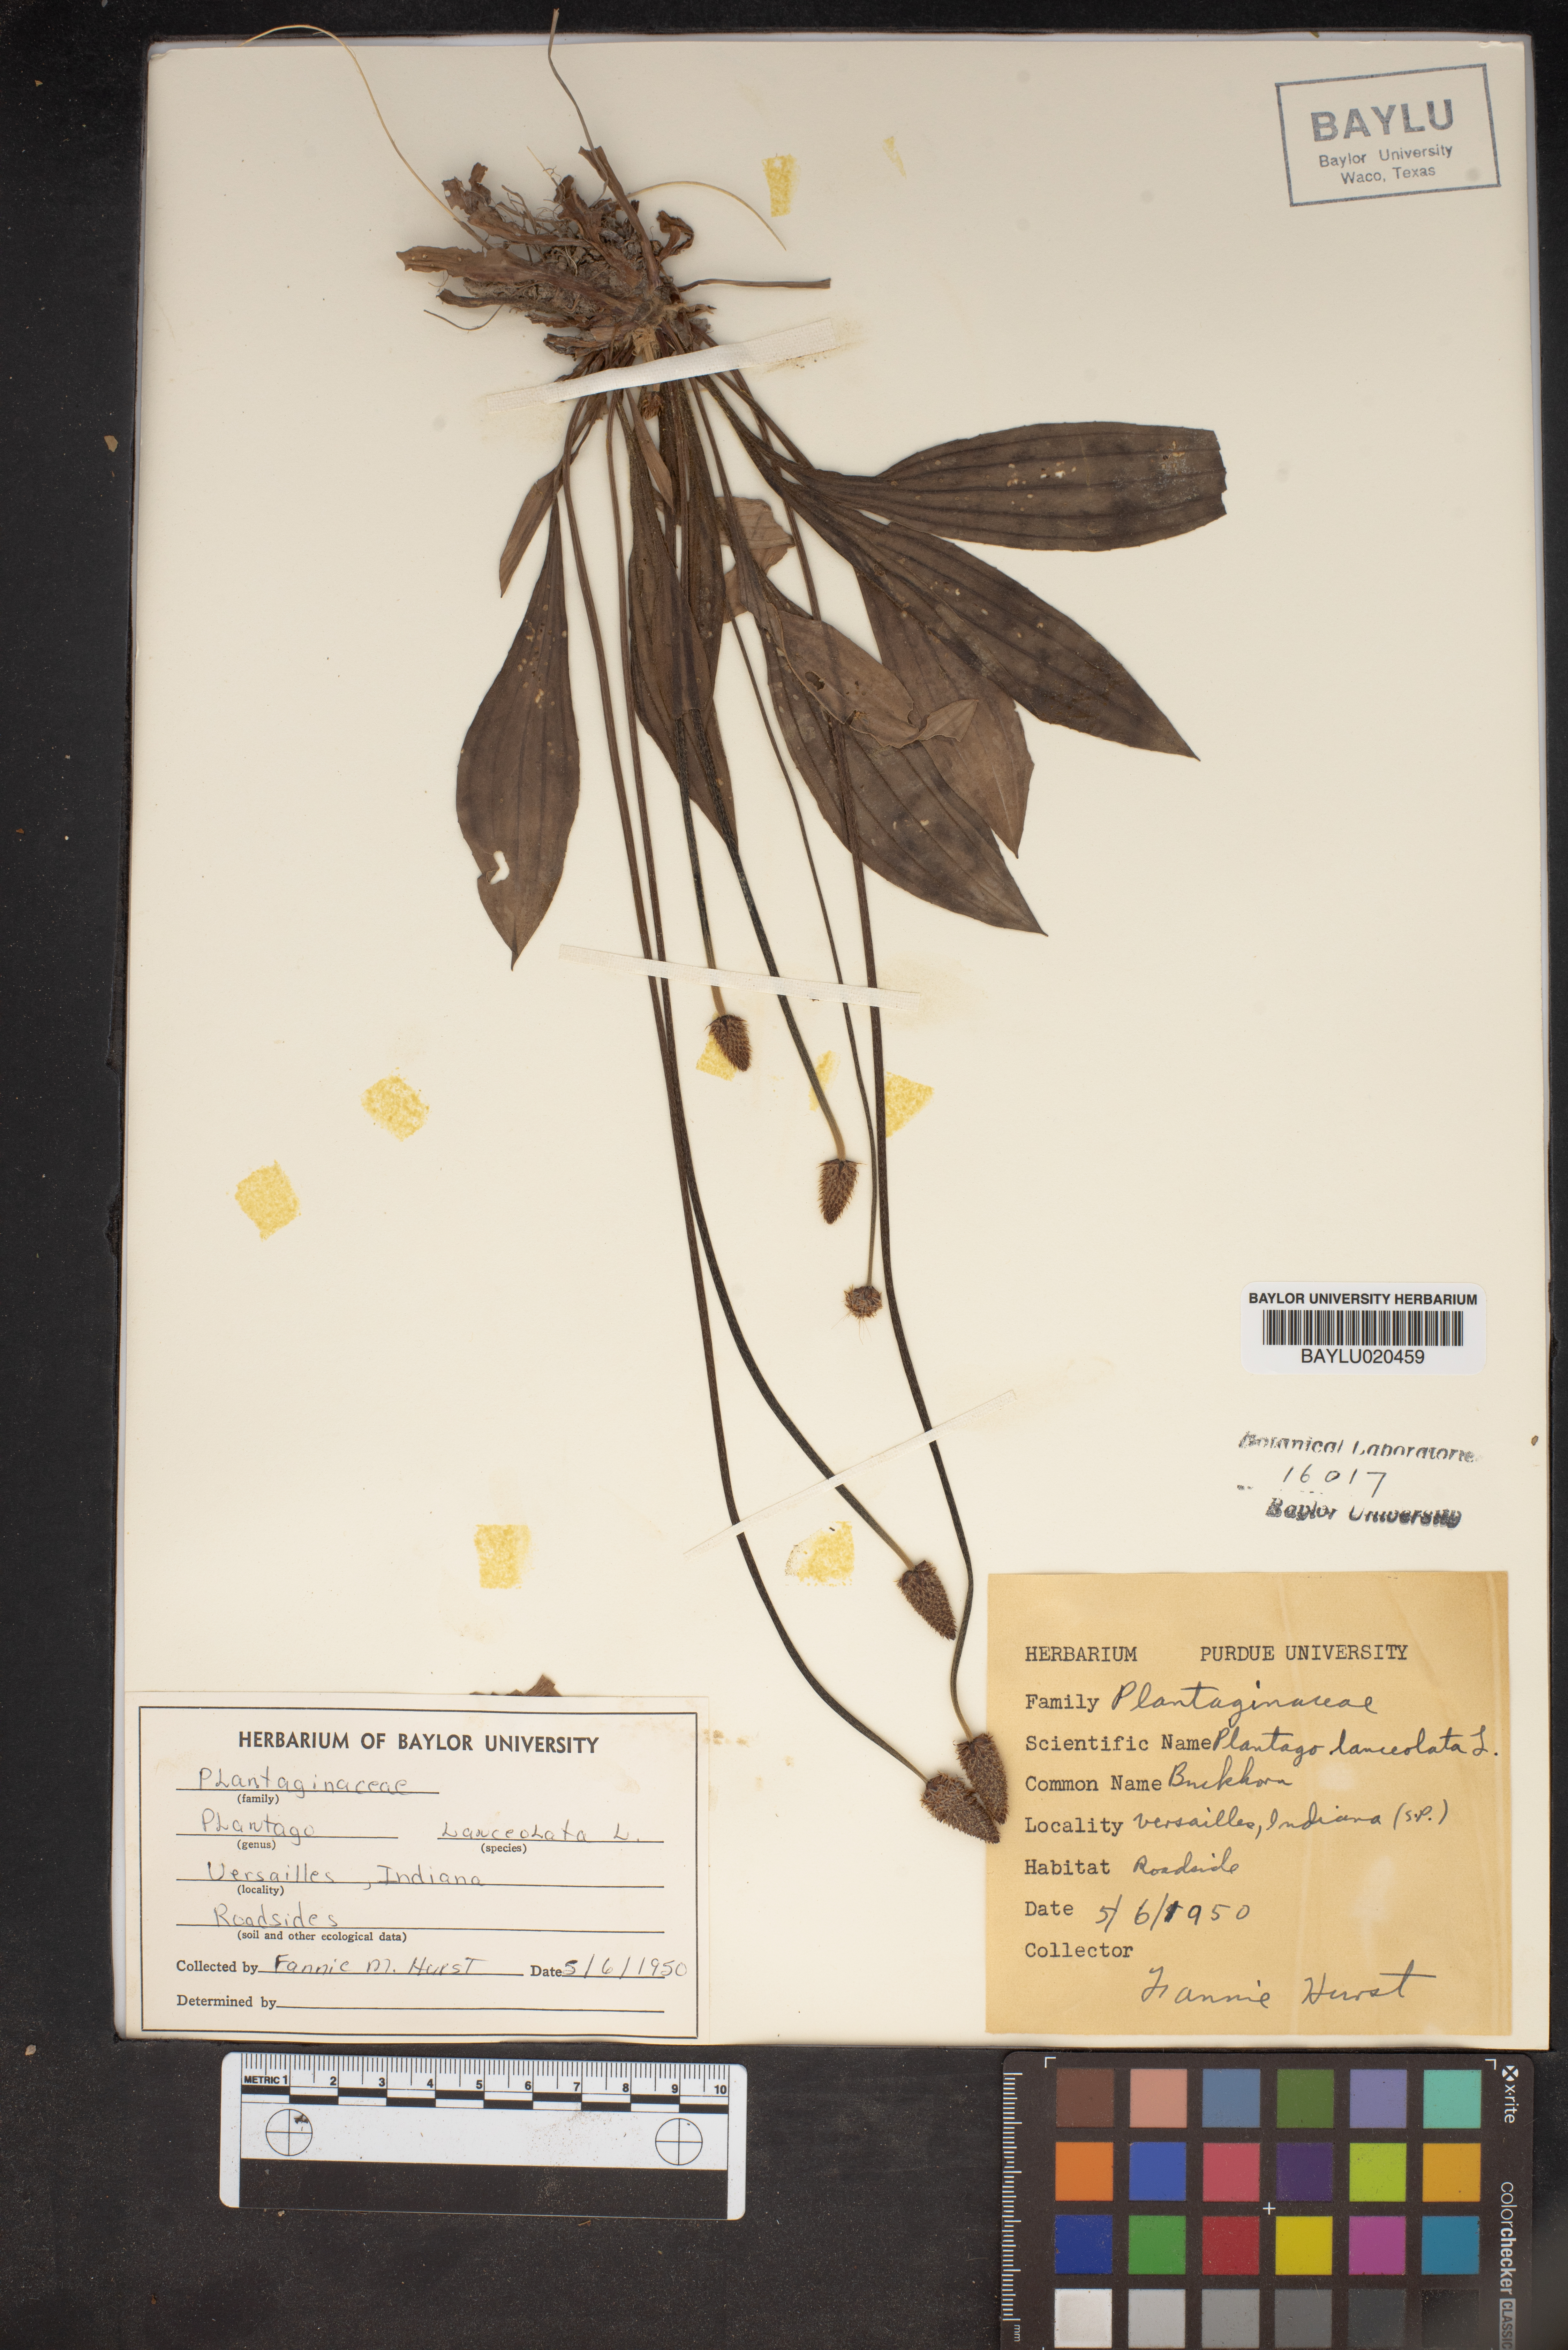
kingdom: Plantae
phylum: Tracheophyta
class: Magnoliopsida
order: Lamiales
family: Plantaginaceae
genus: Plantago
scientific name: Plantago lanceolata
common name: Ribwort plantain
